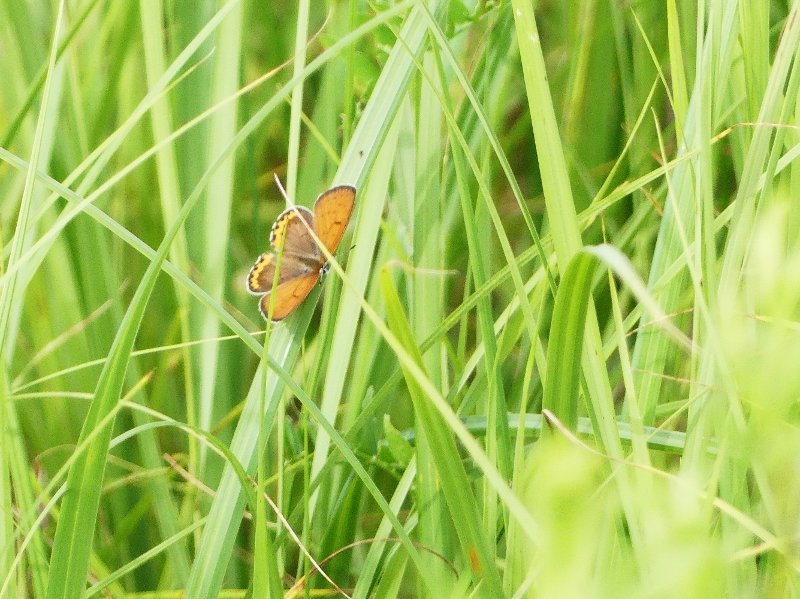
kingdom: Animalia
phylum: Arthropoda
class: Insecta
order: Lepidoptera
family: Sesiidae
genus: Sesia
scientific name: Sesia Lycaena hyllus
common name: Bronze Copper
